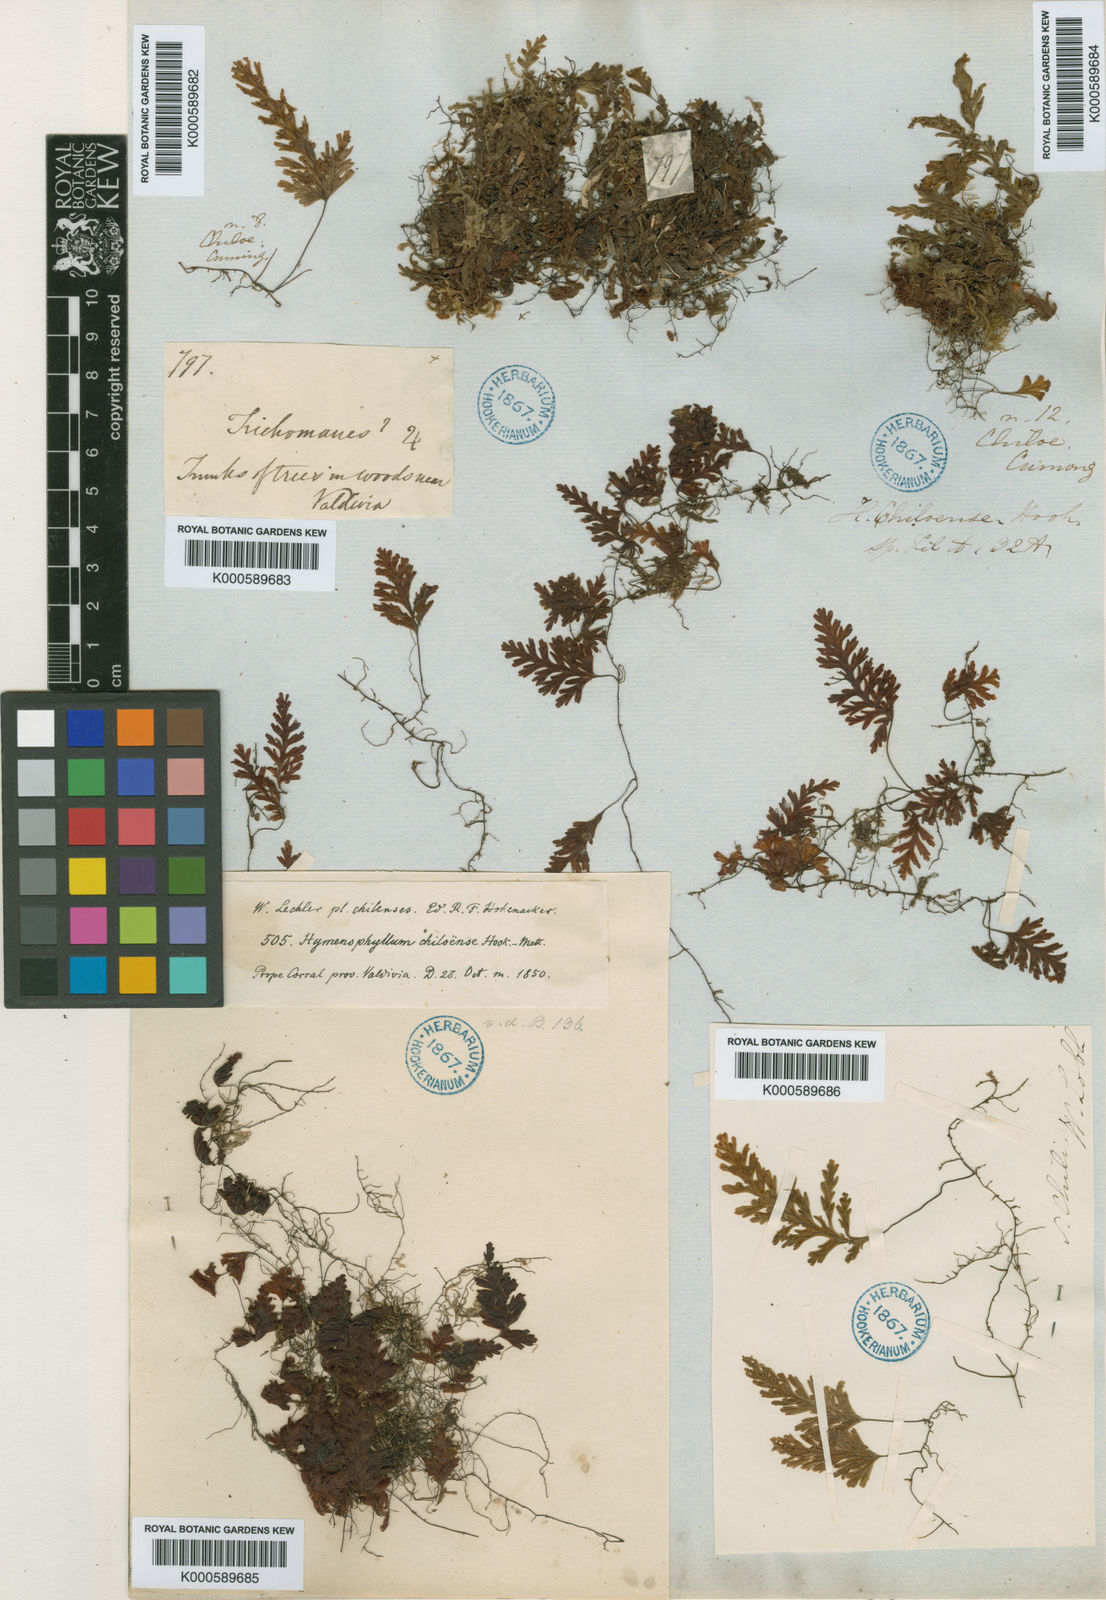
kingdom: Plantae
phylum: Tracheophyta
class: Polypodiopsida
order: Hymenophyllales
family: Hymenophyllaceae
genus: Hymenophyllum
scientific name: Hymenophyllum dicranotrichum
